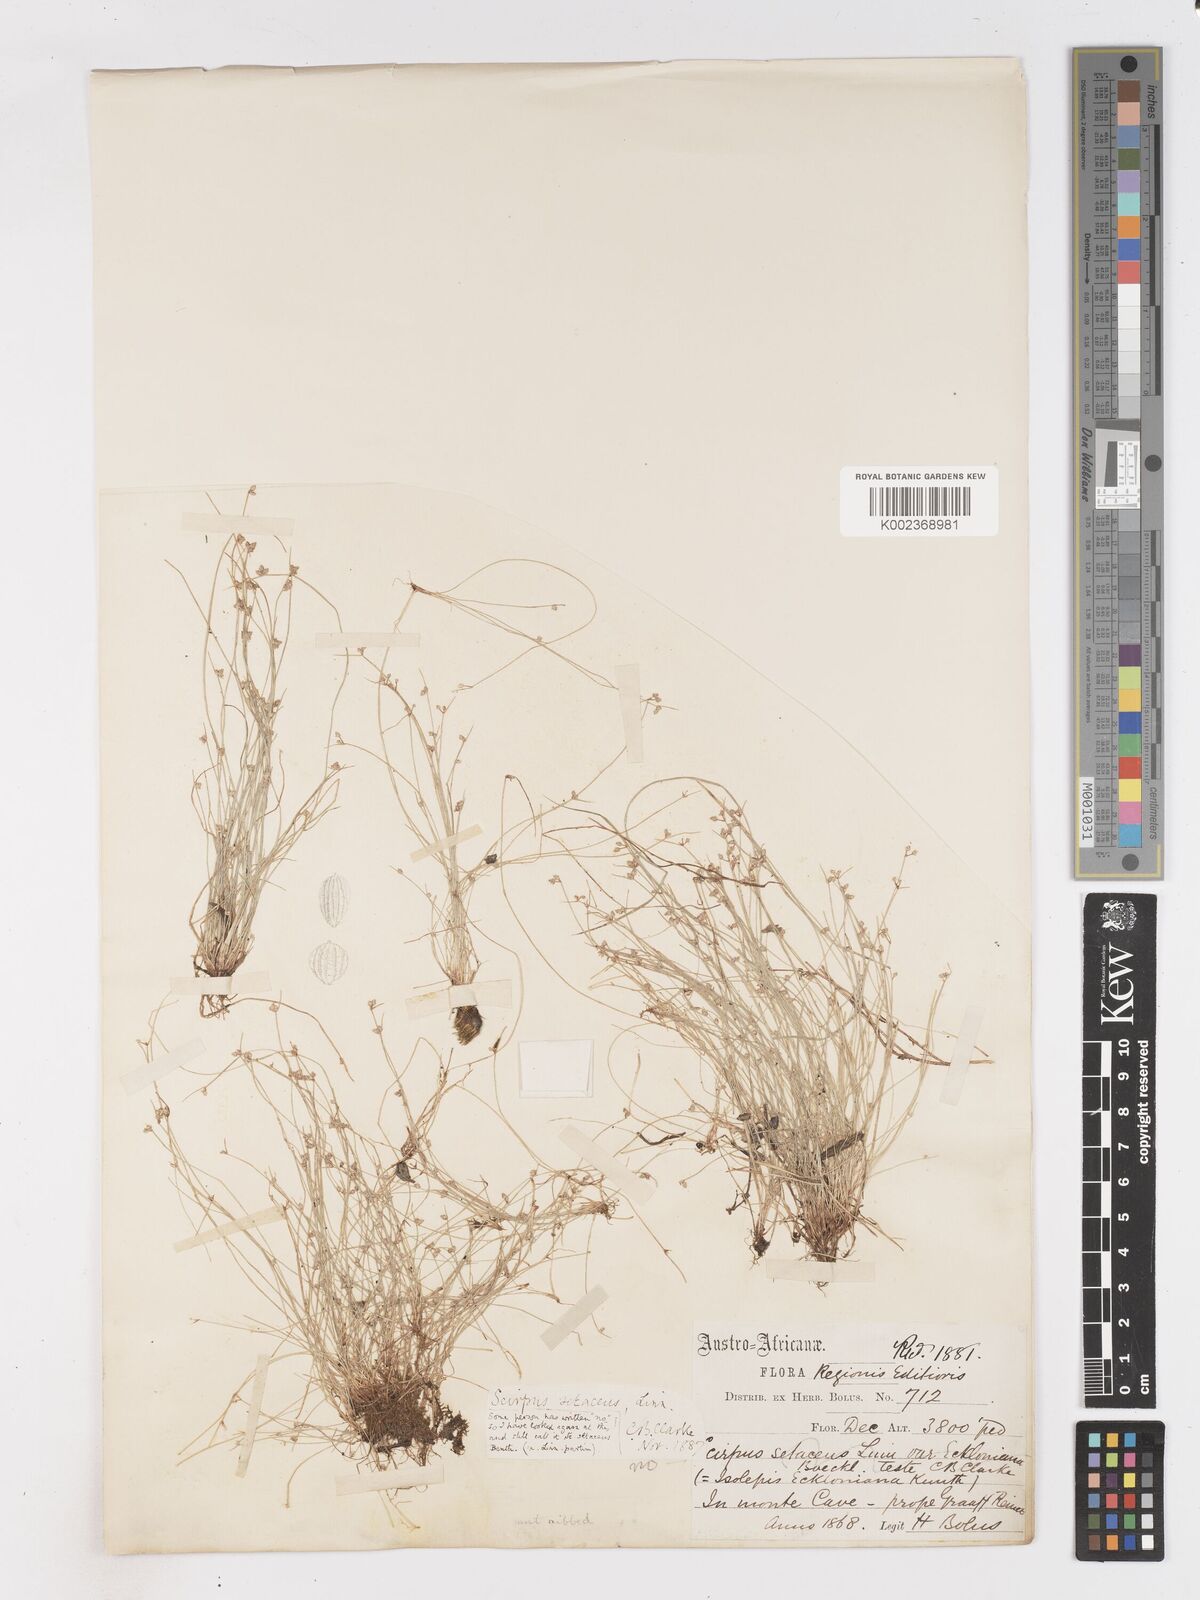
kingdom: Plantae
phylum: Tracheophyta
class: Liliopsida
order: Poales
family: Cyperaceae
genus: Isolepis
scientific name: Isolepis setacea
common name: Bristle club-rush
